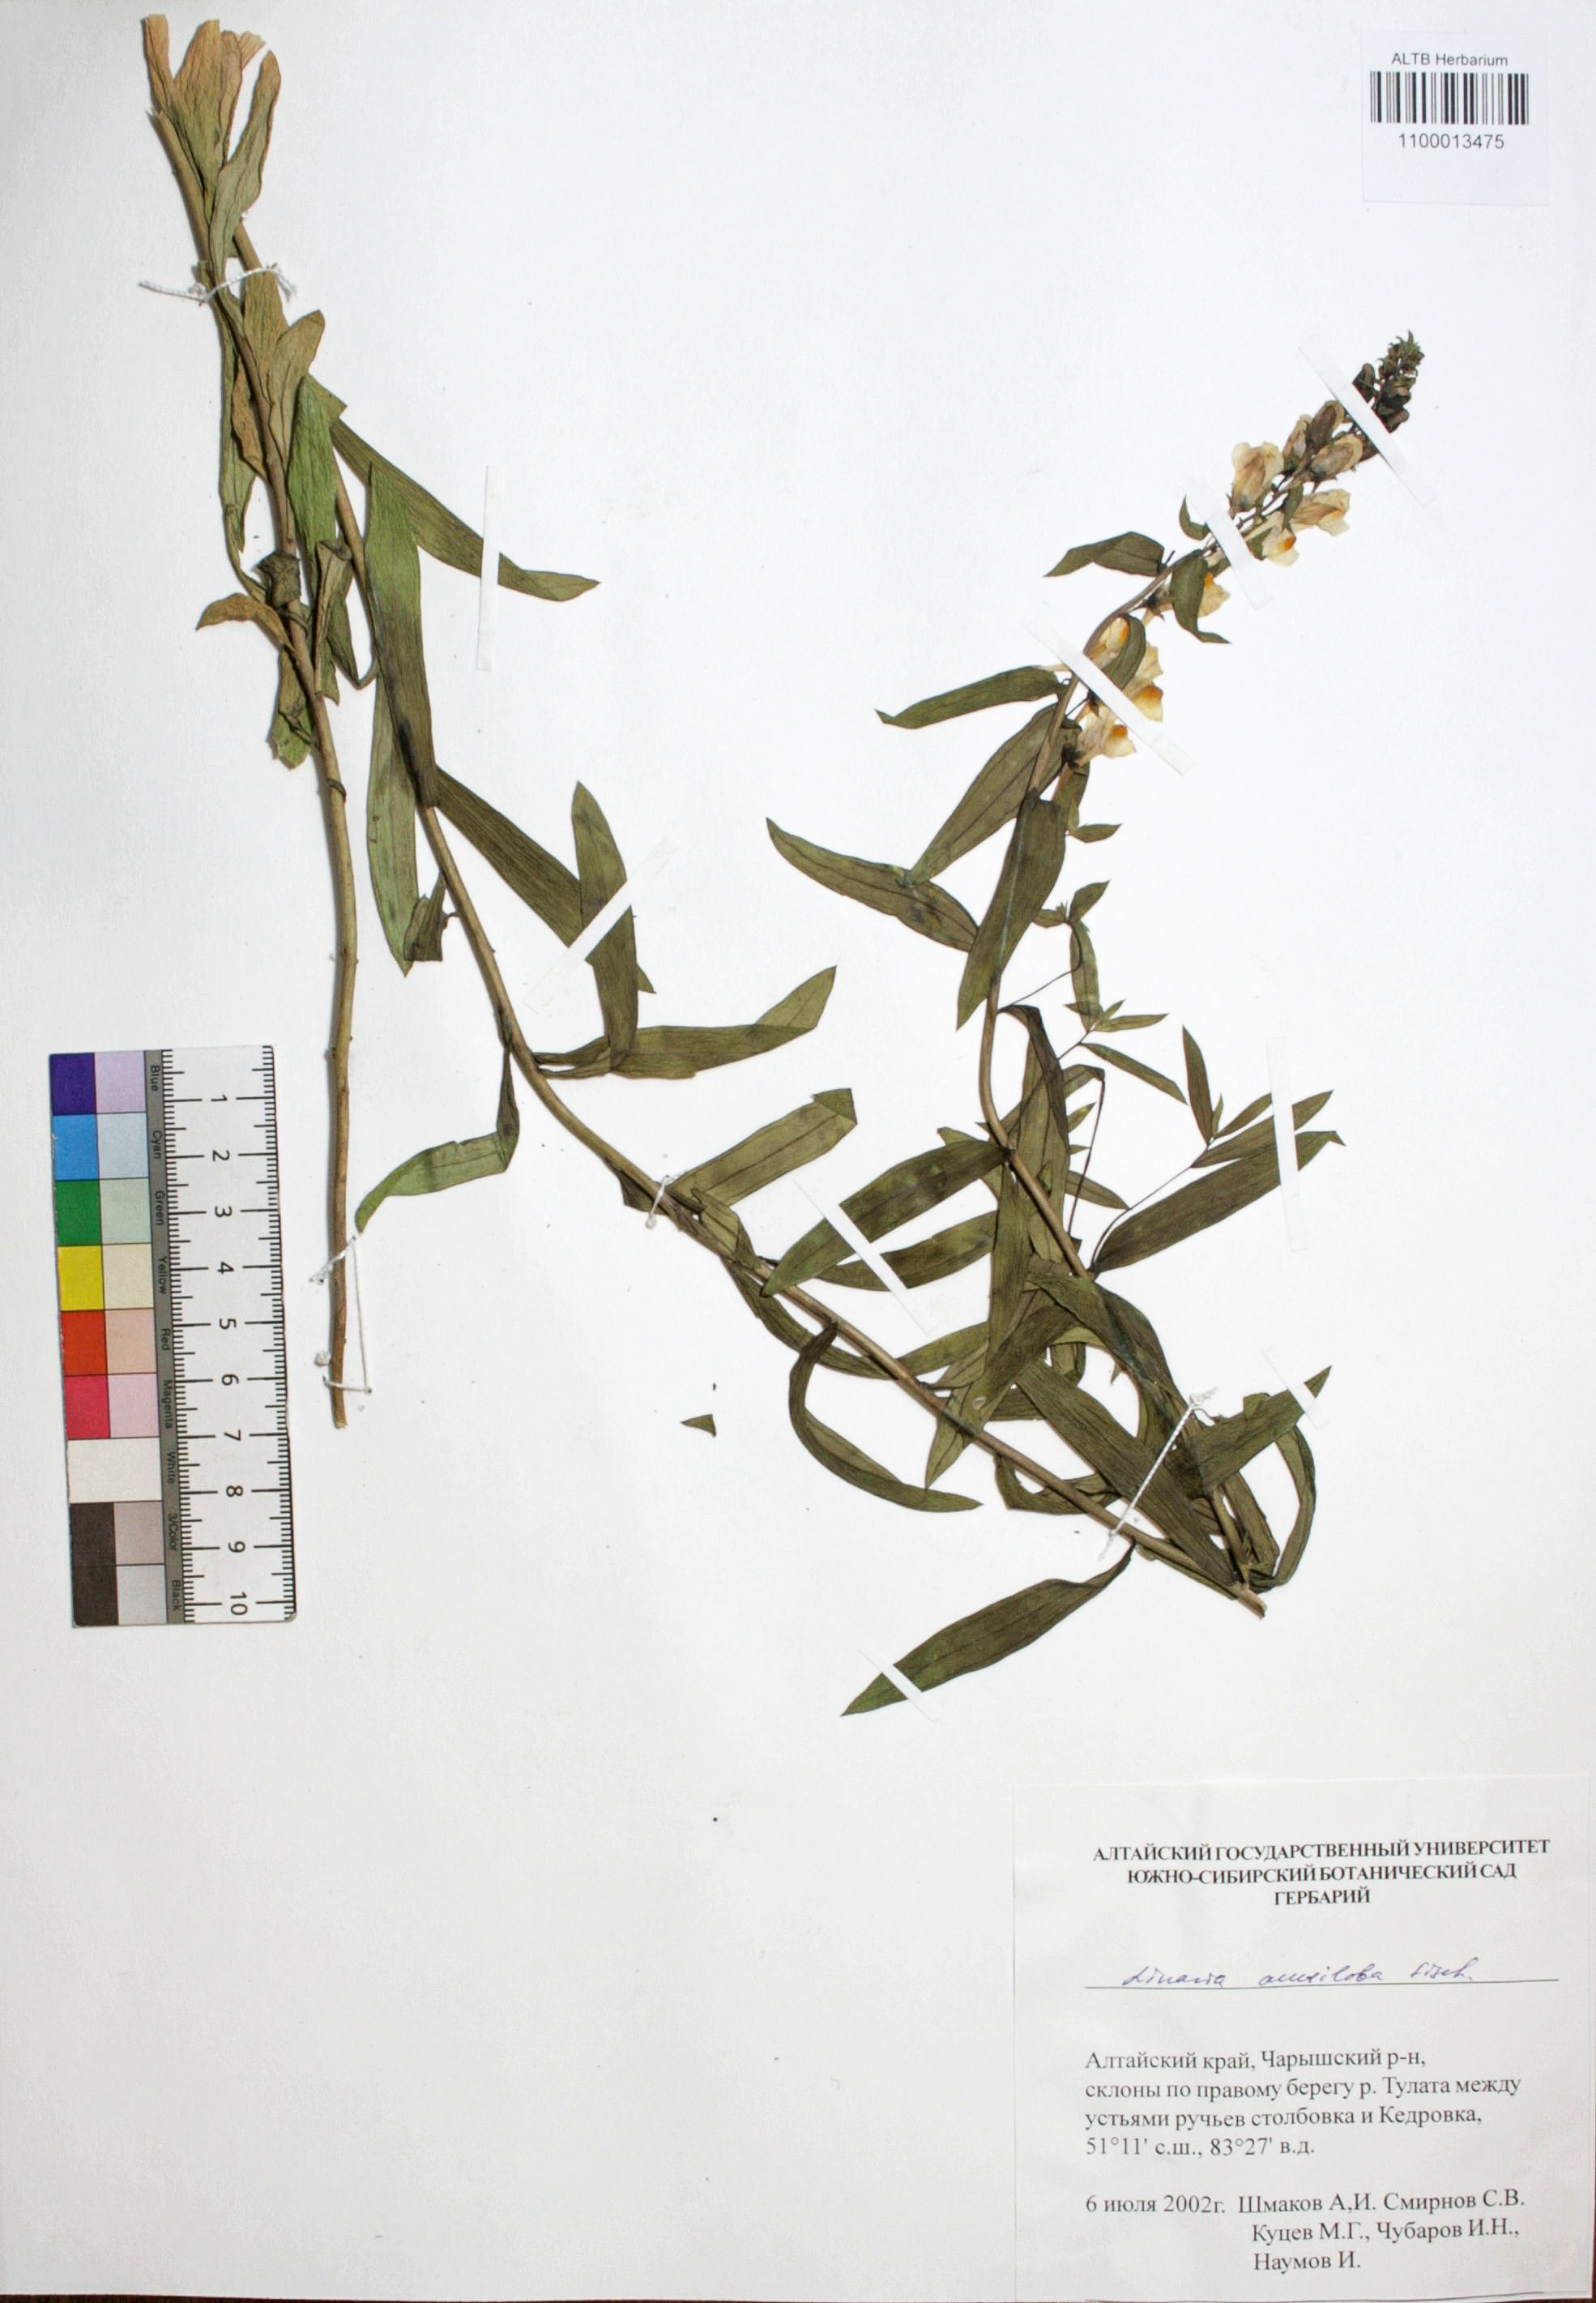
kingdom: Plantae
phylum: Tracheophyta
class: Magnoliopsida
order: Lamiales
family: Plantaginaceae
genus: Linaria
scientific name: Linaria acutiloba
